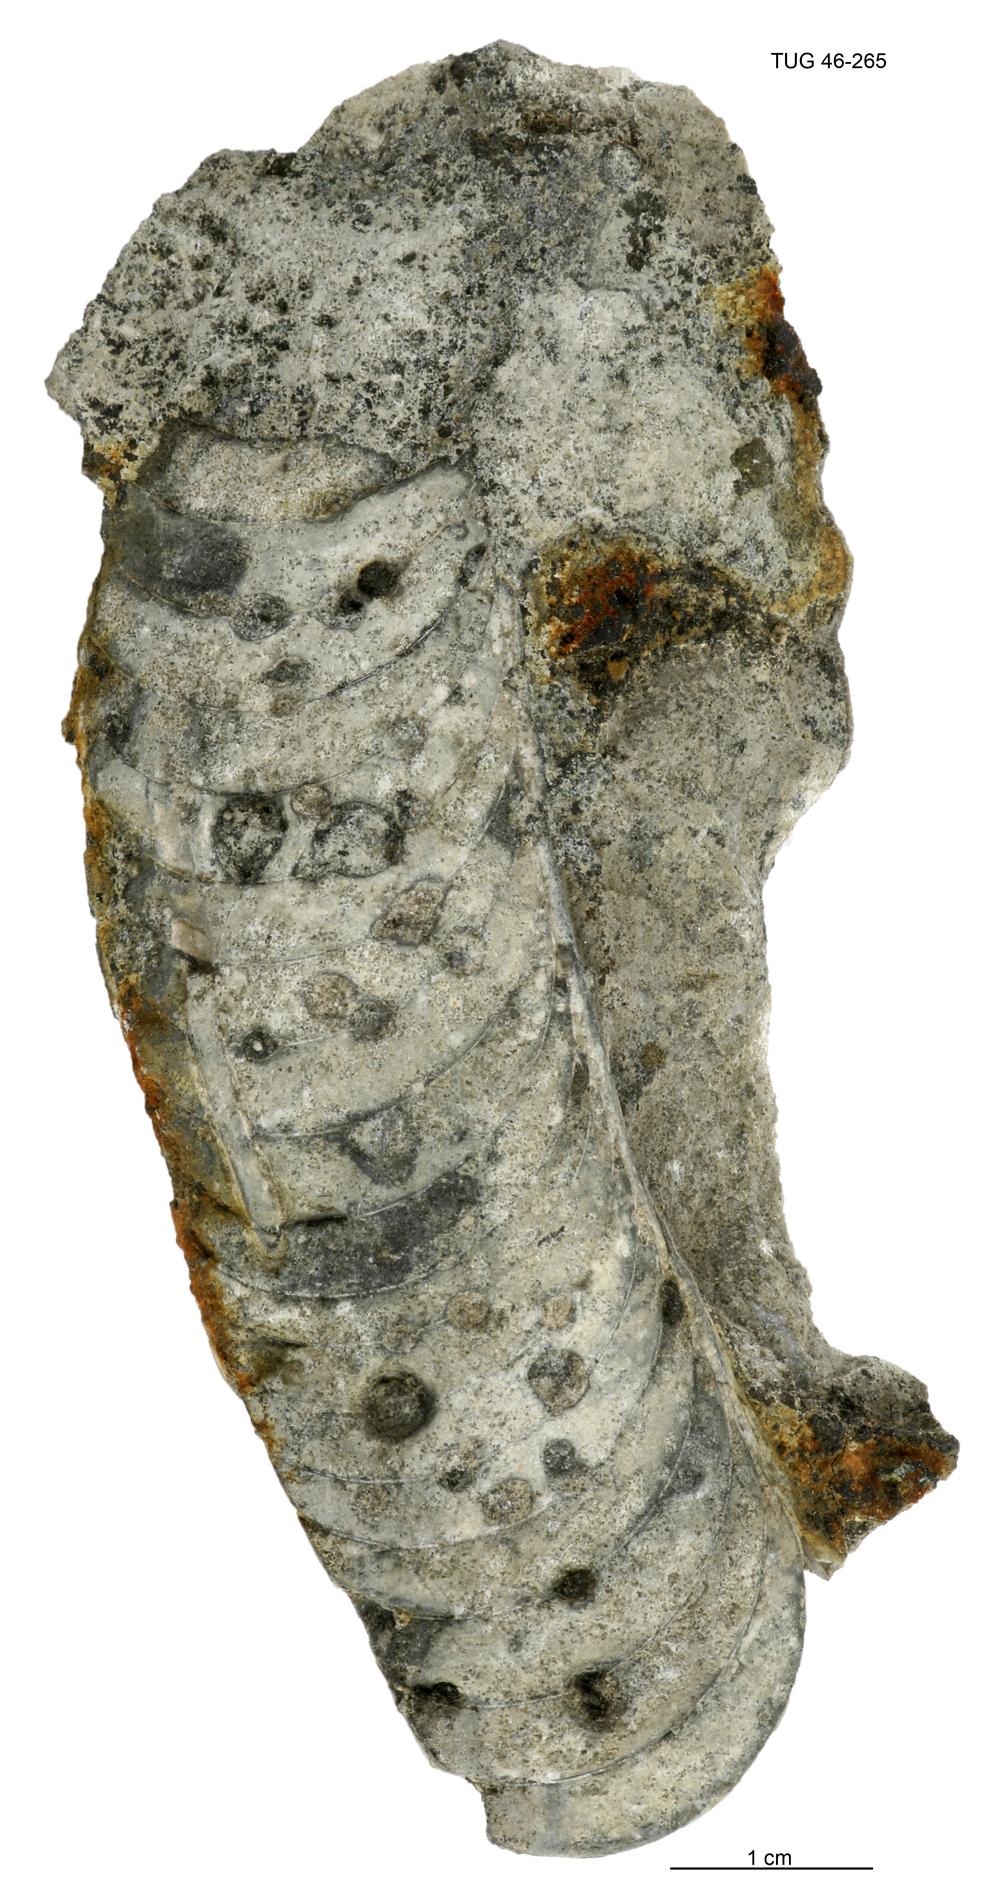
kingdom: Animalia
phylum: Mollusca
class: Cephalopoda
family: Tarphyceratidae
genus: Planctoceras
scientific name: Planctoceras
